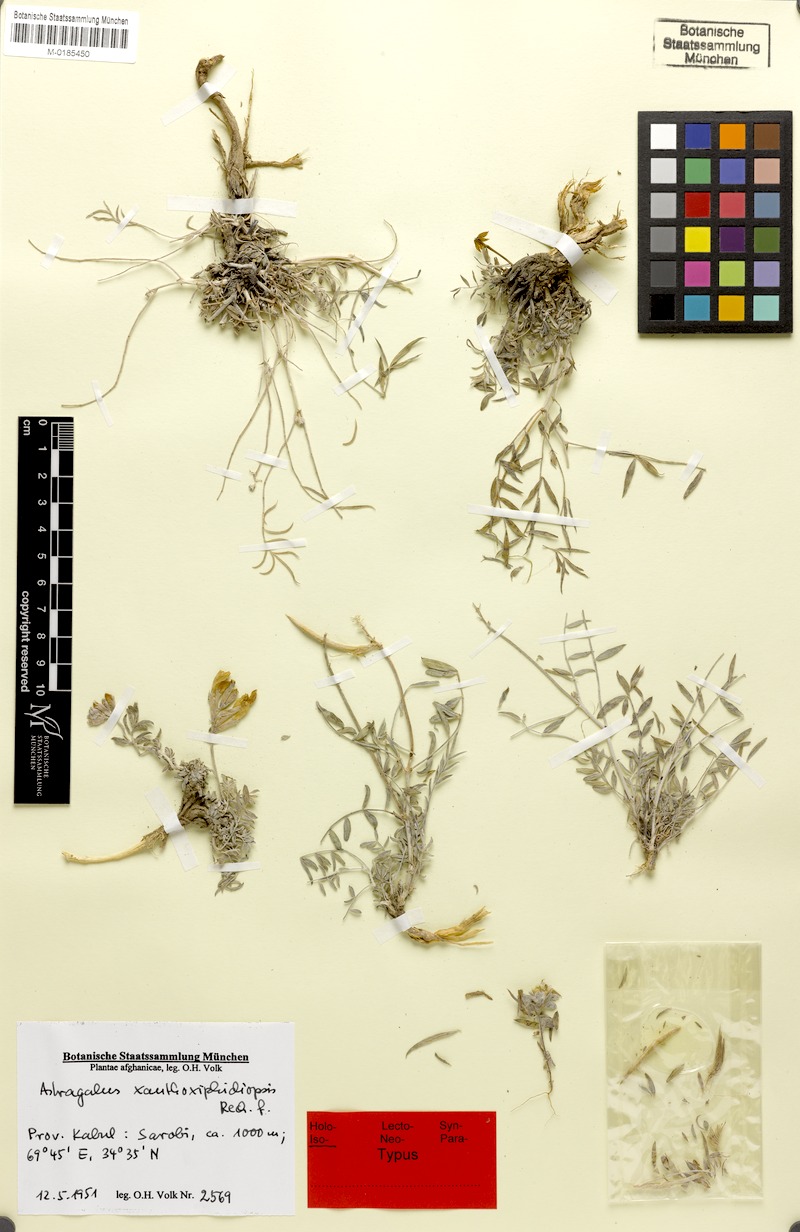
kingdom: Plantae
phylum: Tracheophyta
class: Magnoliopsida
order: Fabales
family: Fabaceae
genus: Astragalus
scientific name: Astragalus xanthoxiphidiopsis
